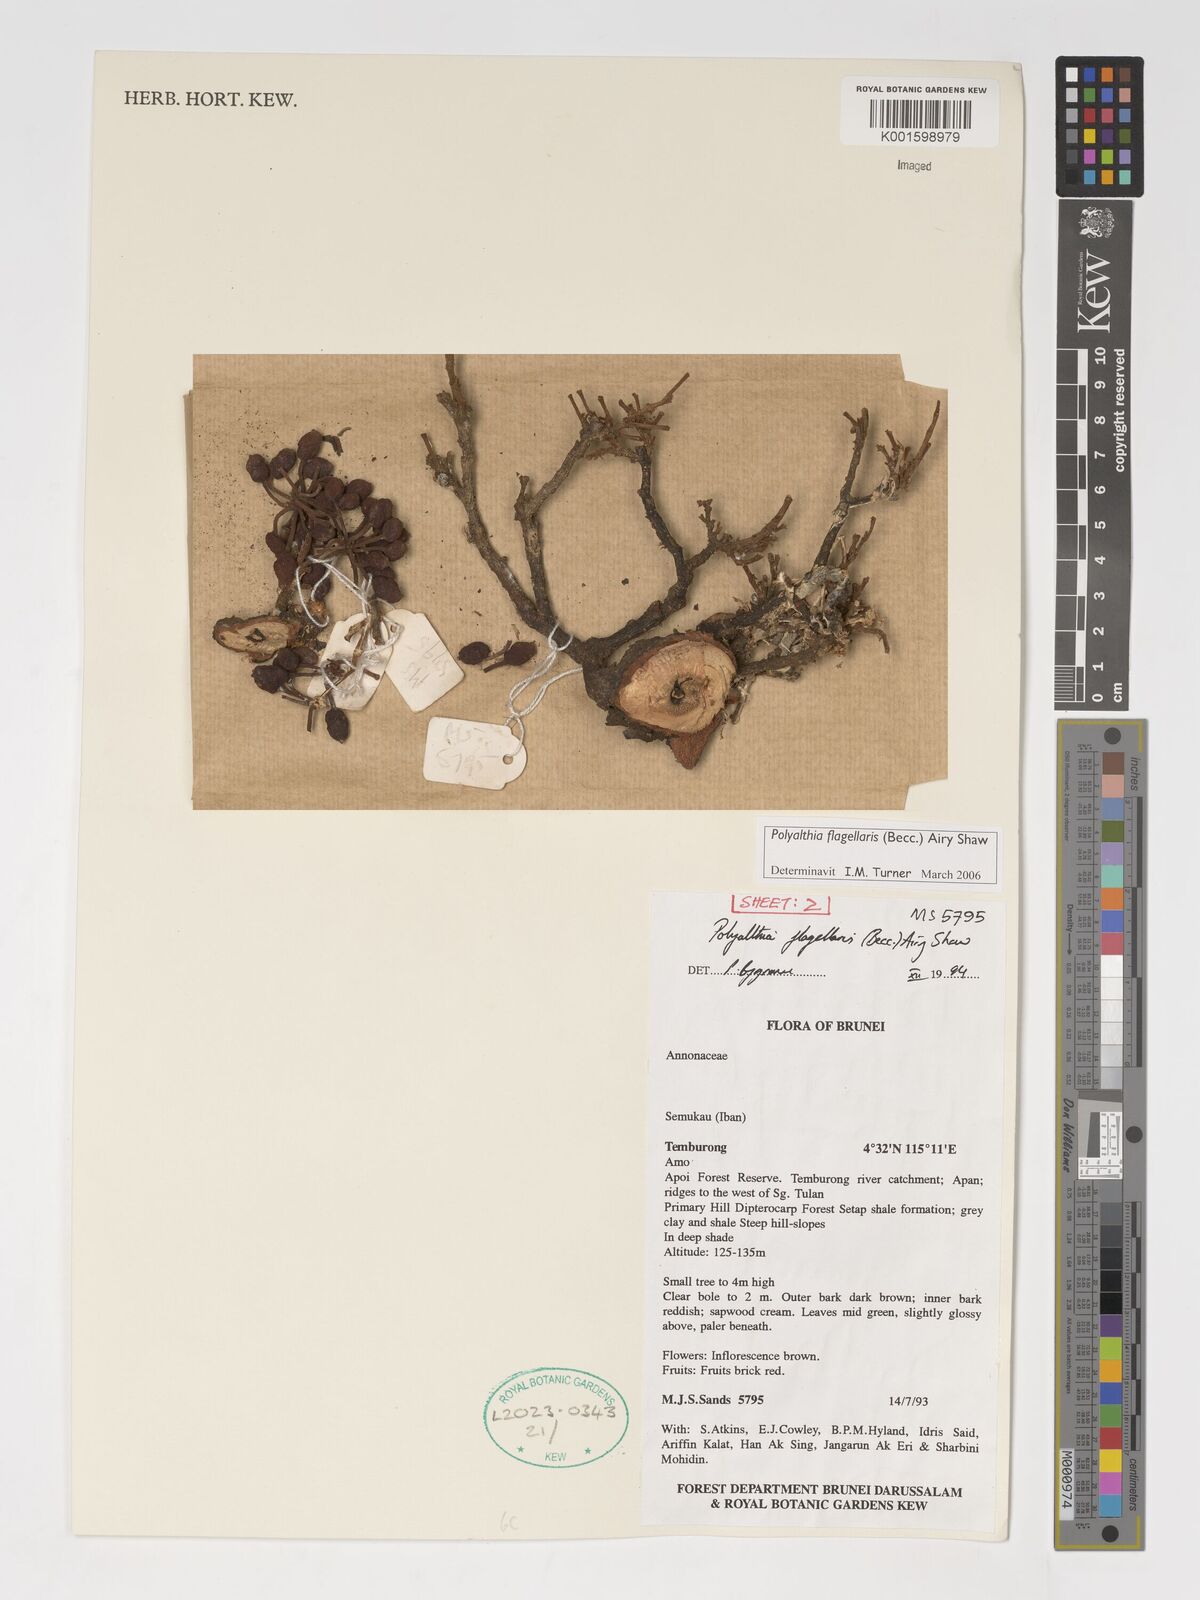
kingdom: Plantae
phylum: Tracheophyta
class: Magnoliopsida
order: Magnoliales
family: Annonaceae
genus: Polyalthia
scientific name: Polyalthia flagellaris
